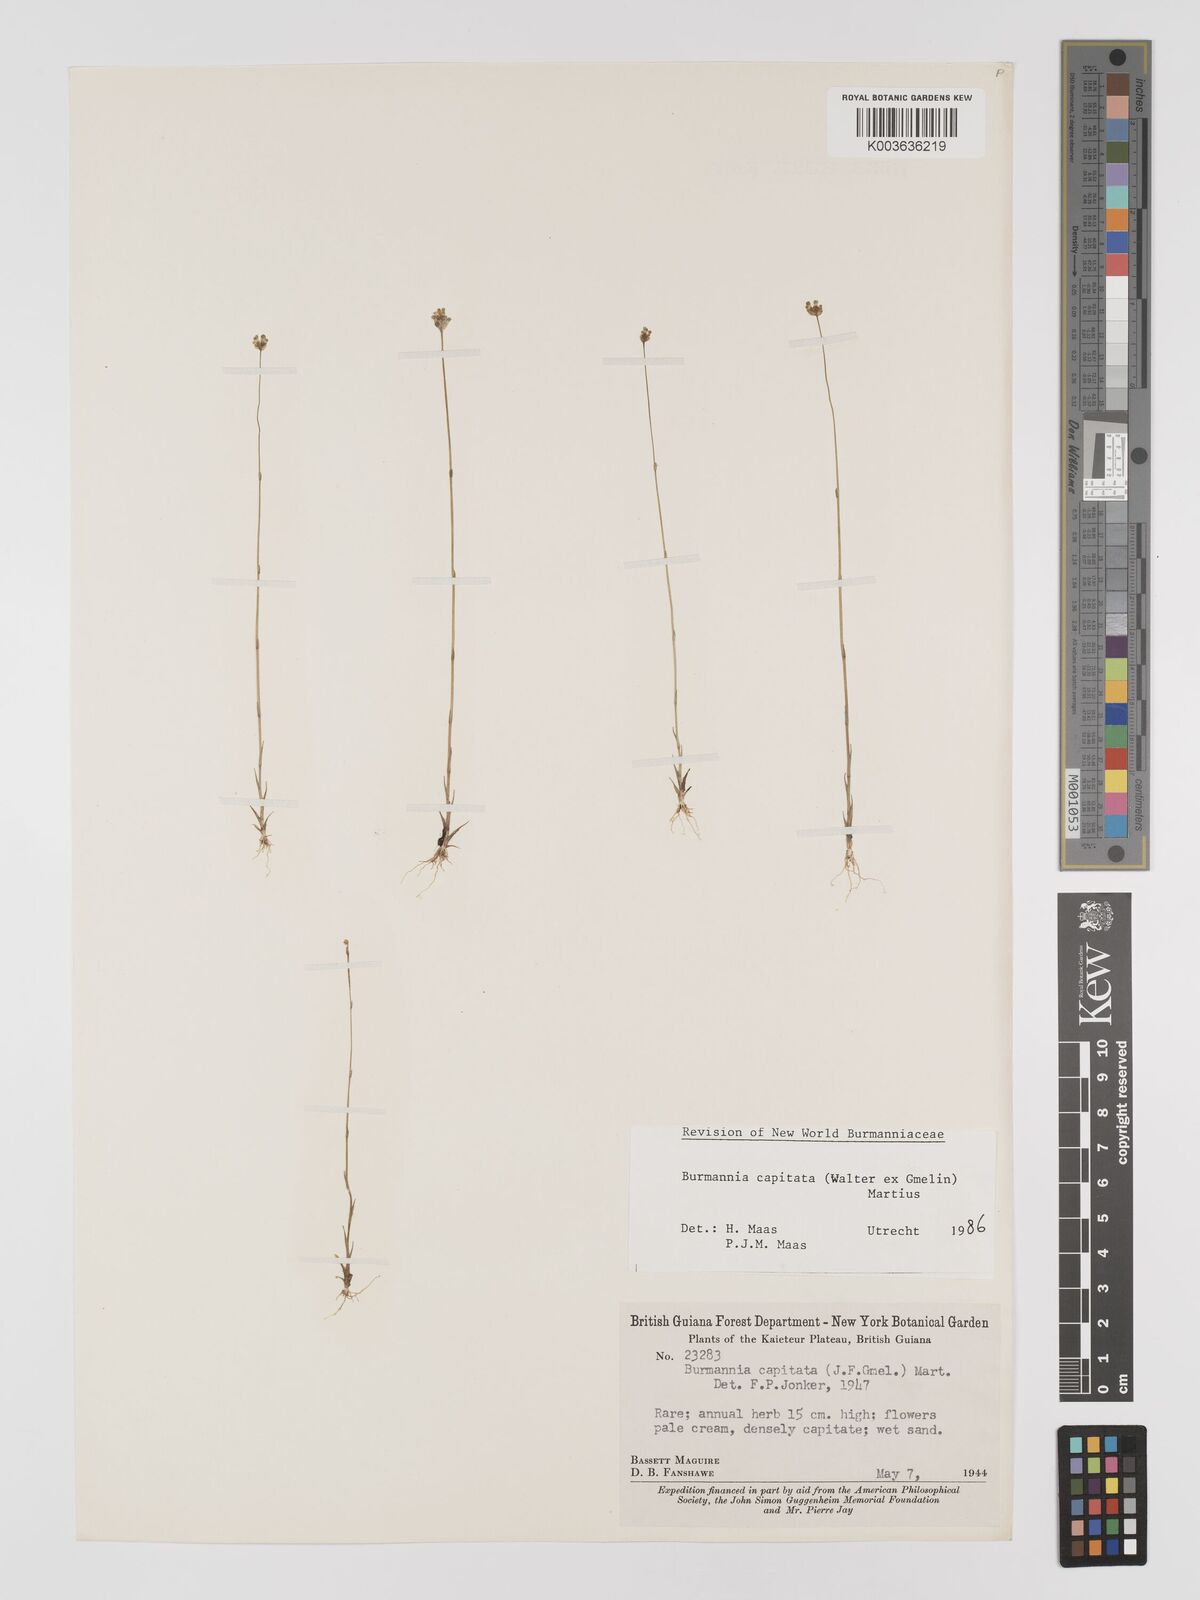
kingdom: Plantae
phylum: Tracheophyta
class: Liliopsida
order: Dioscoreales
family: Burmanniaceae
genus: Burmannia
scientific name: Burmannia capitata
